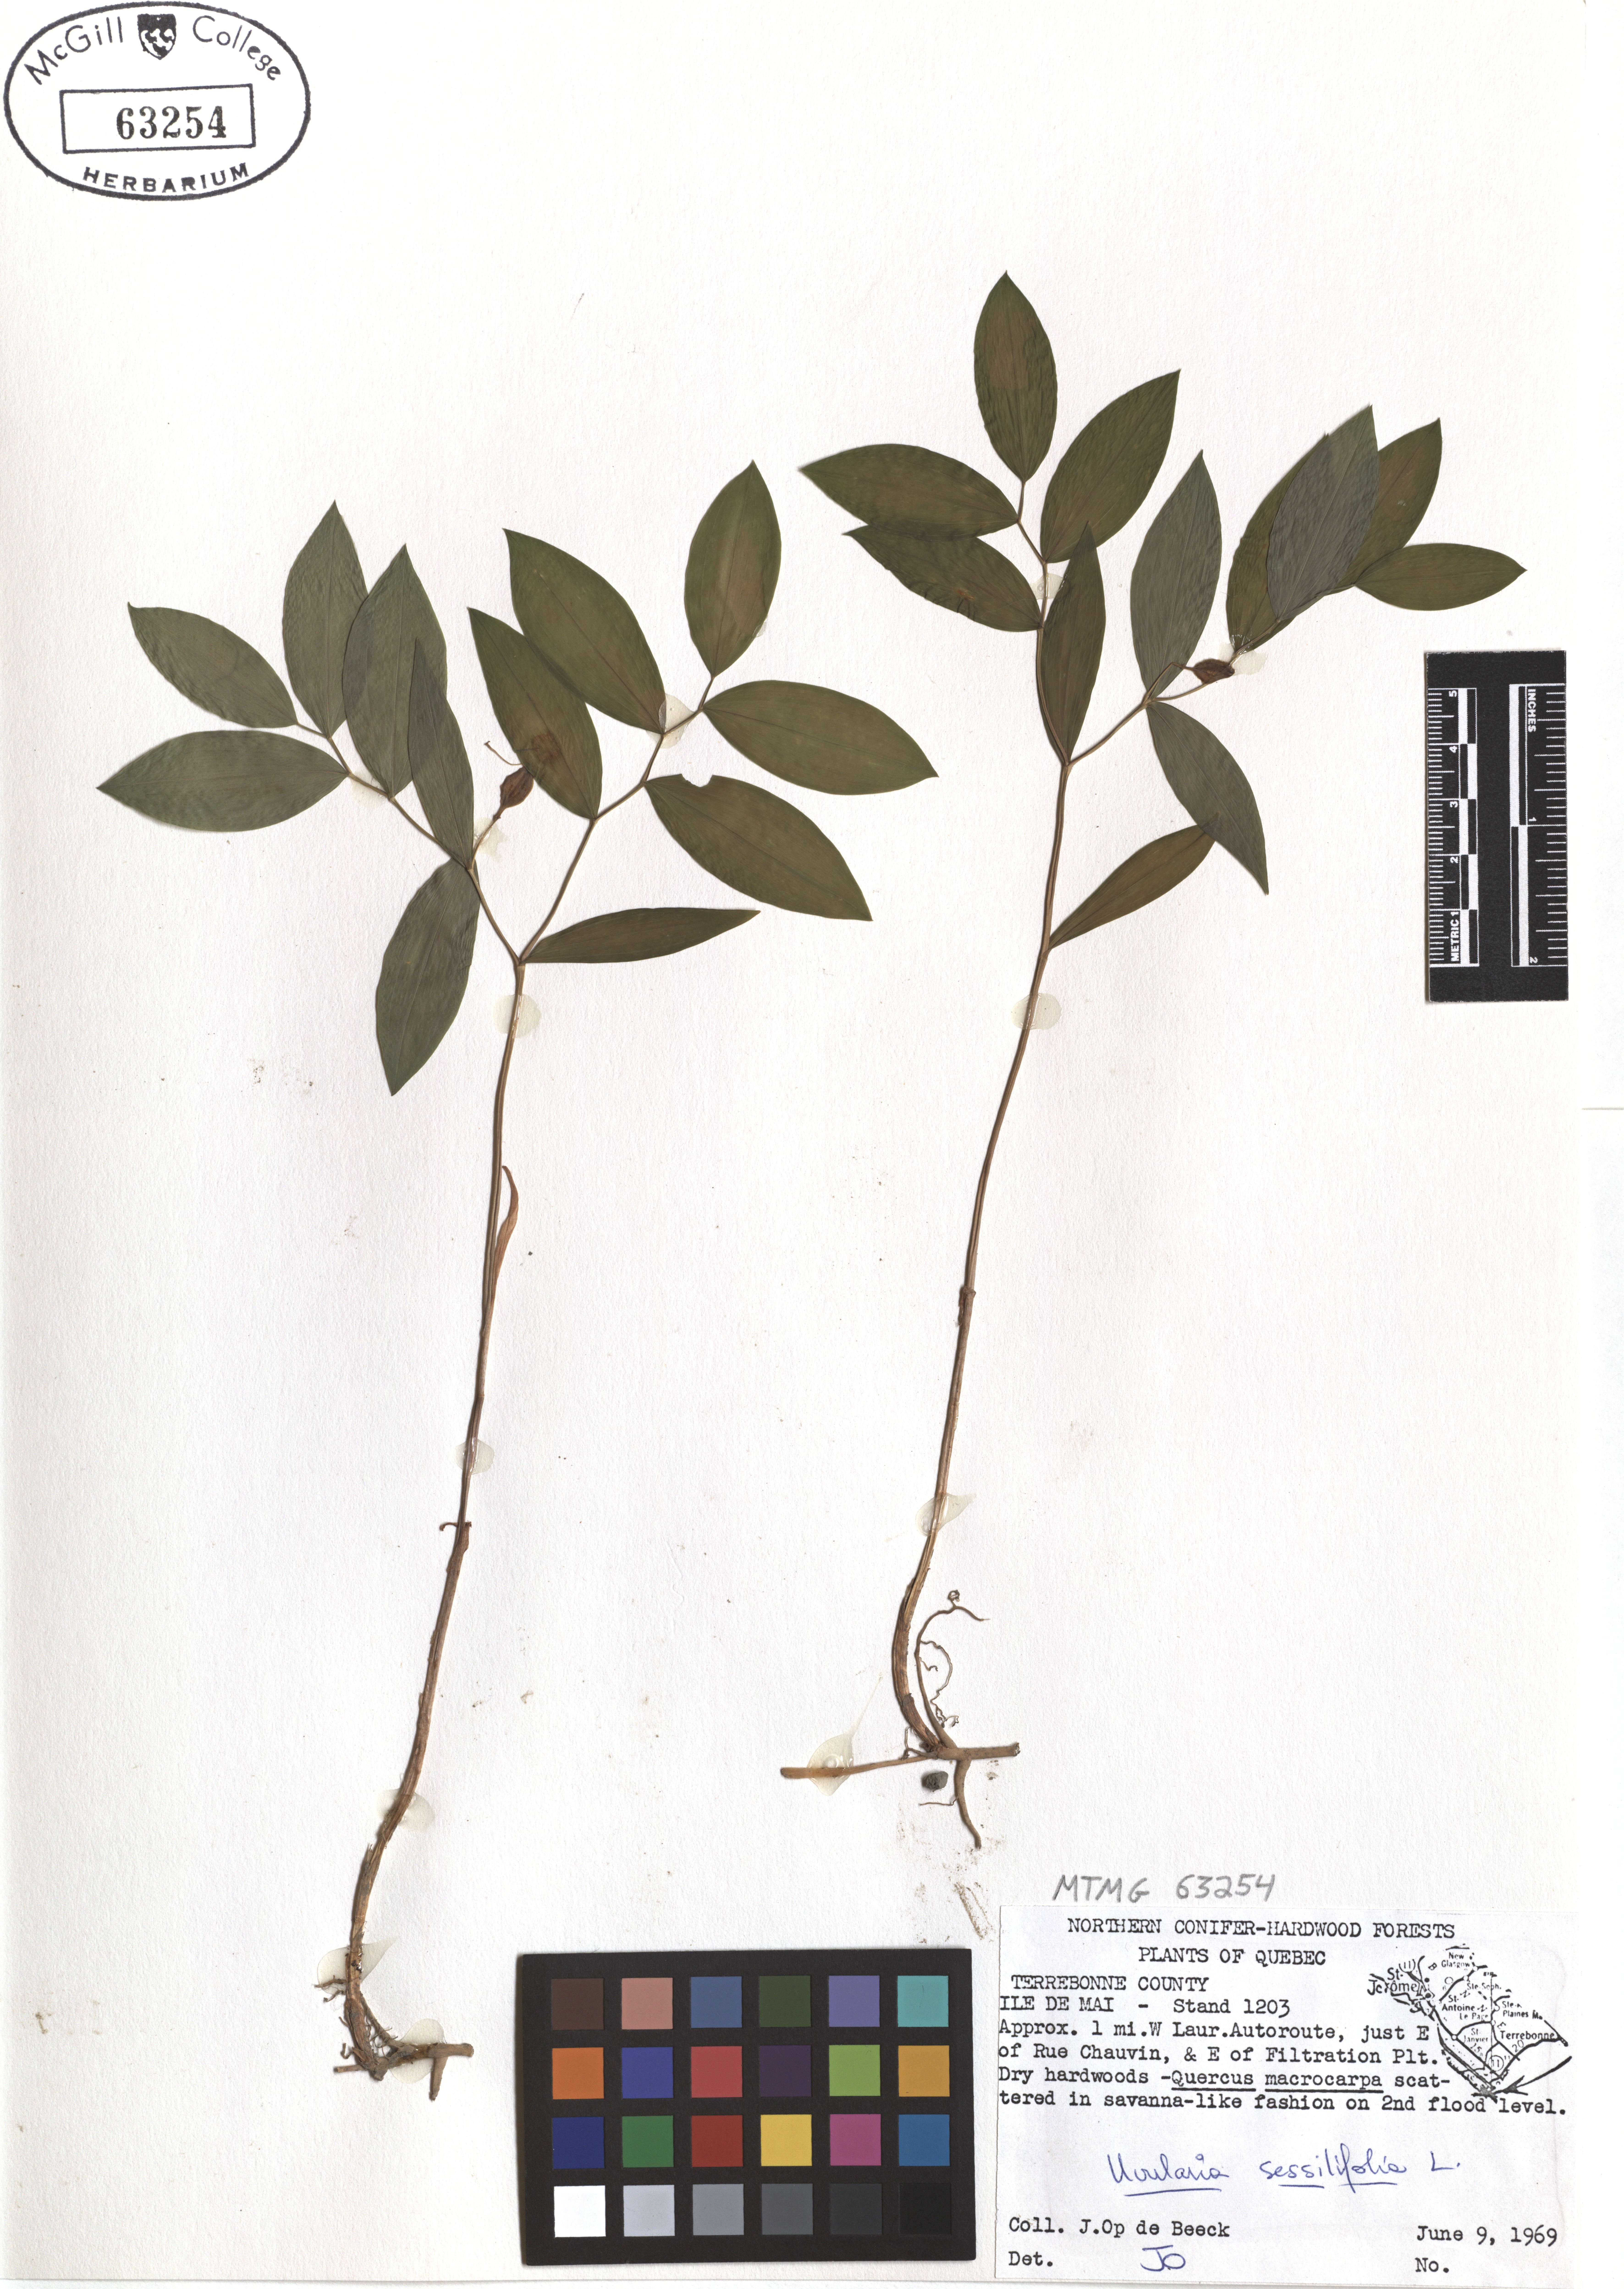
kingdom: Plantae
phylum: Tracheophyta
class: Liliopsida
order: Liliales
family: Colchicaceae
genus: Uvularia
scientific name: Uvularia sessilifolia
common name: Straw-lily
